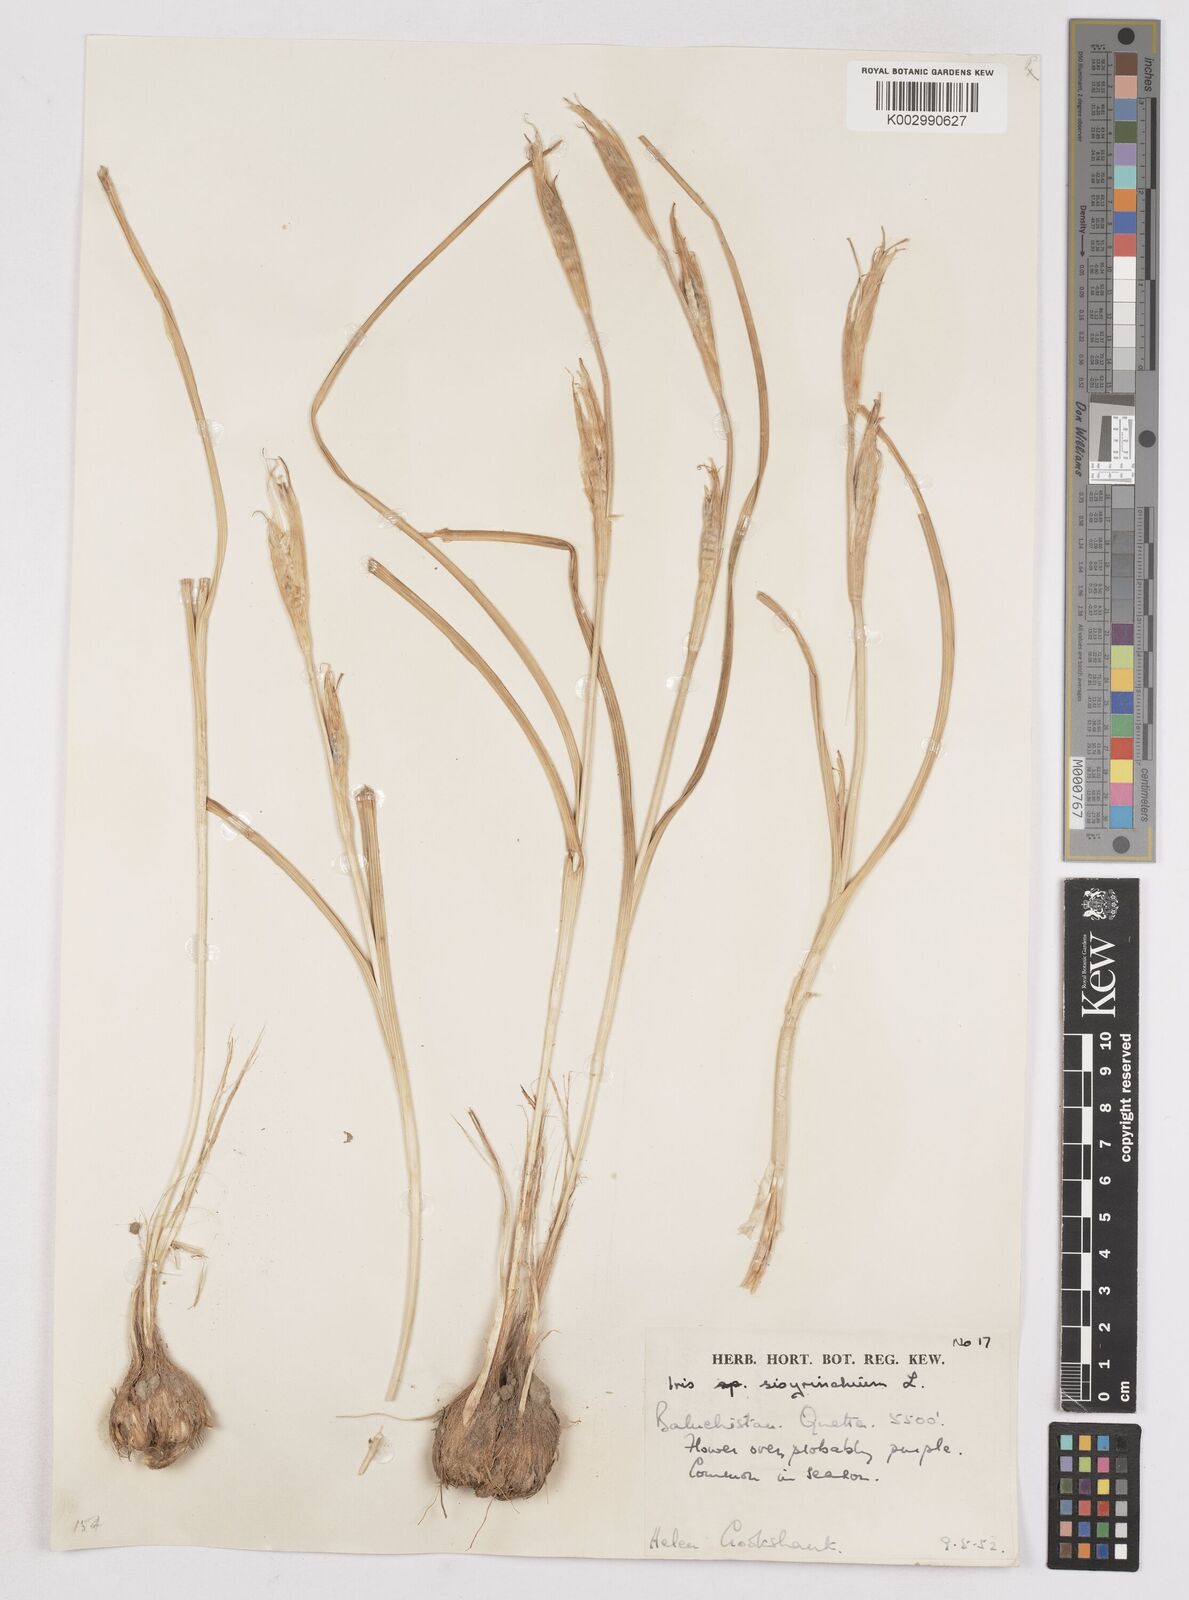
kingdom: Plantae
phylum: Tracheophyta
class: Liliopsida
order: Asparagales
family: Iridaceae
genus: Moraea
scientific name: Moraea sisyrinchium
